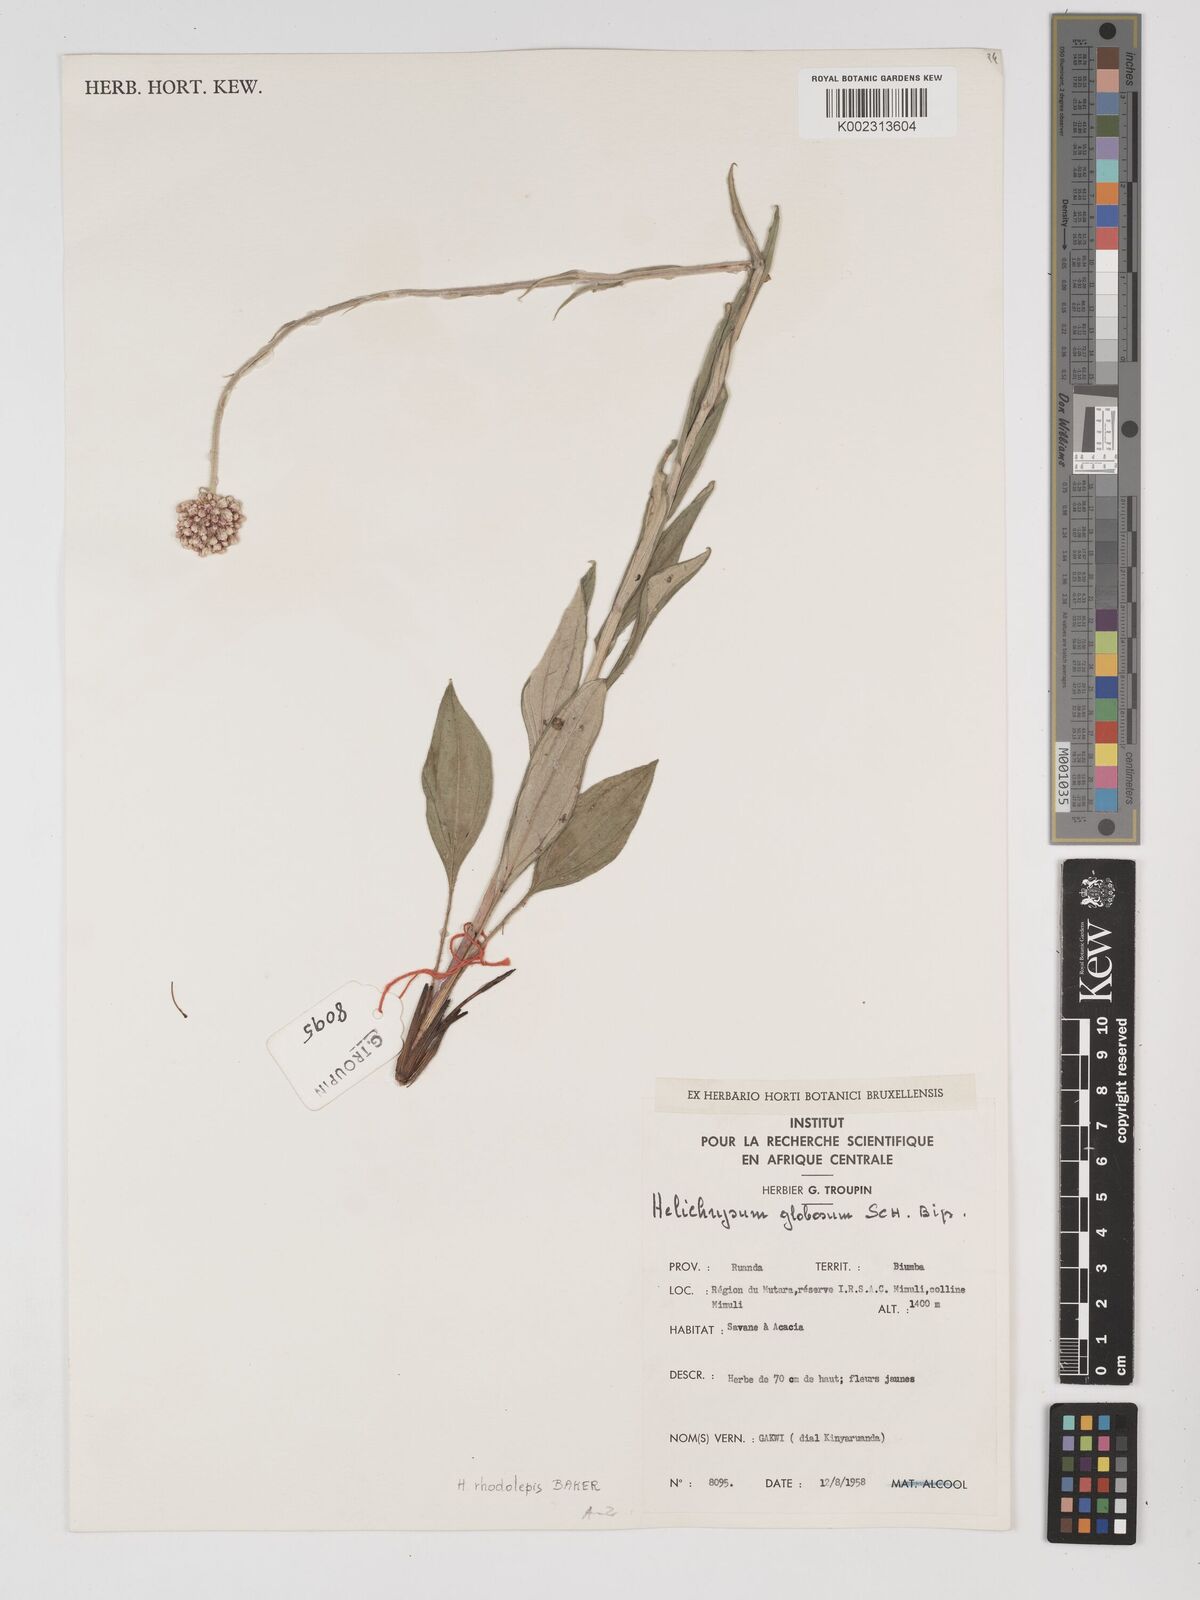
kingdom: Plantae
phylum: Tracheophyta
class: Magnoliopsida
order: Asterales
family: Asteraceae
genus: Helichrysum
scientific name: Helichrysum nudifolium
